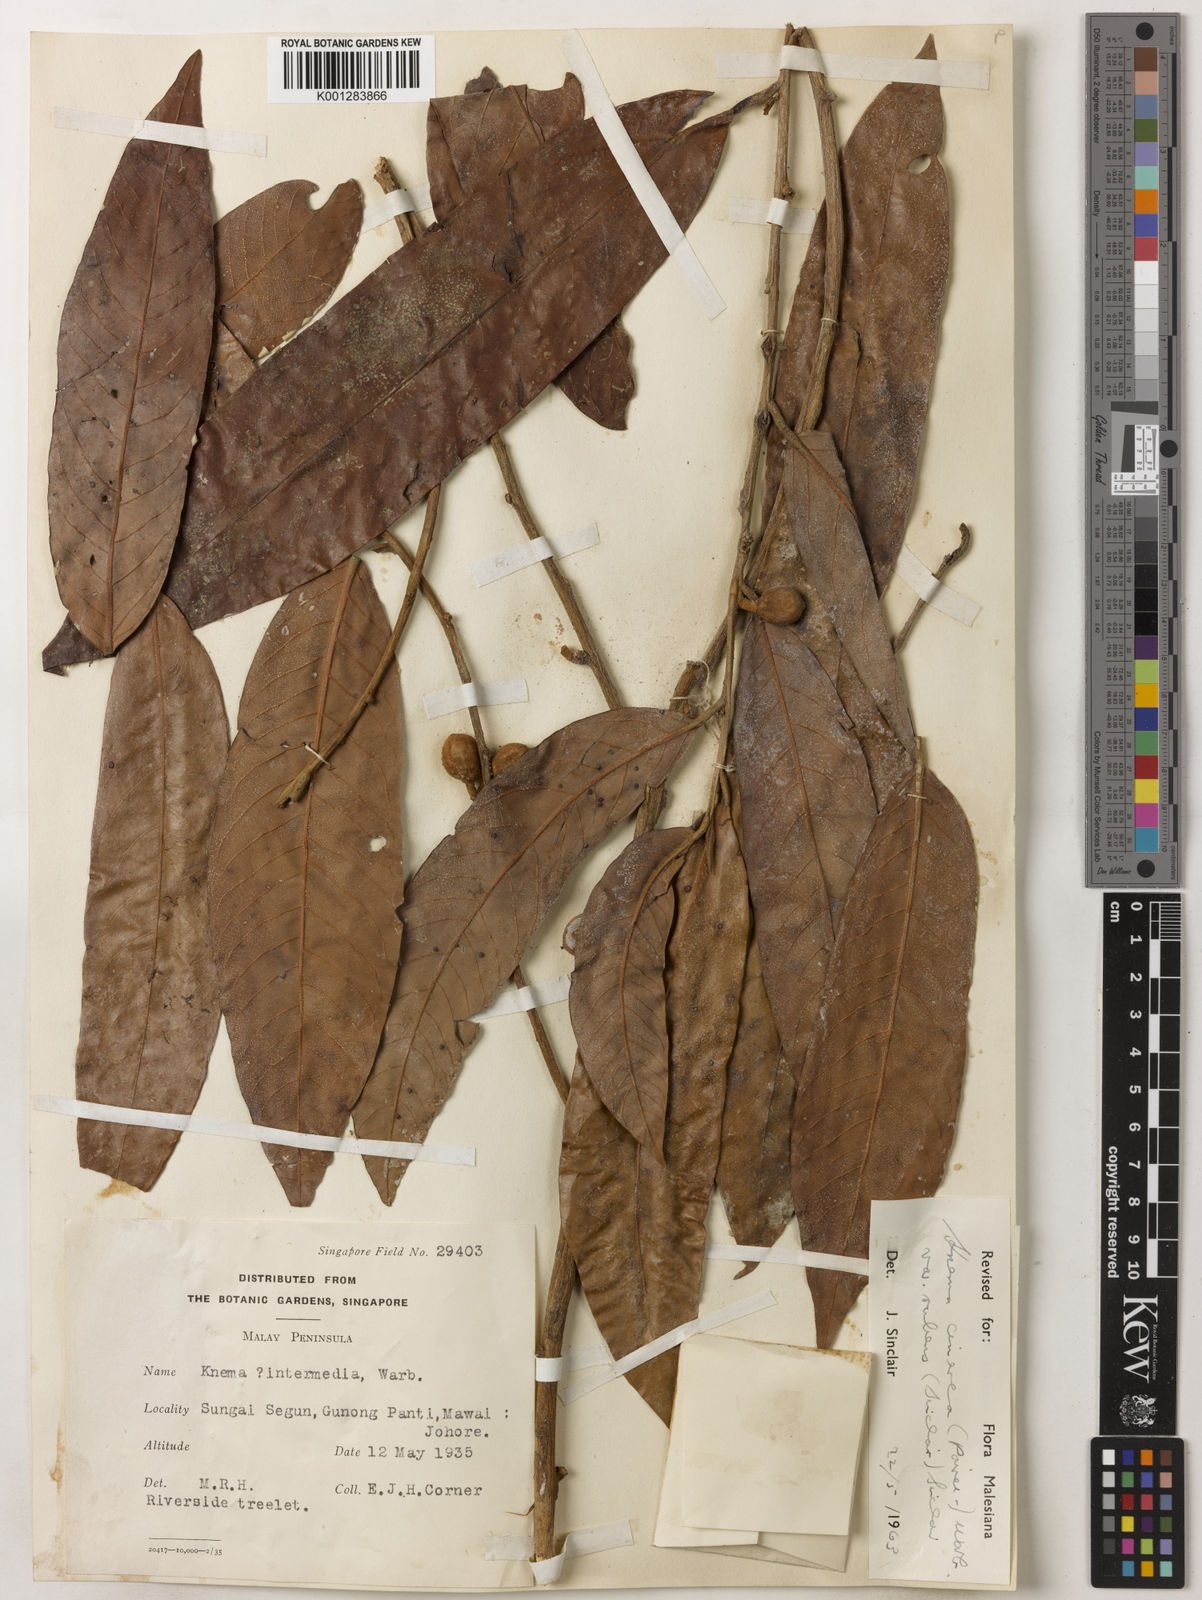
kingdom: Plantae
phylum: Tracheophyta
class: Magnoliopsida
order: Magnoliales
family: Myristicaceae
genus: Knema
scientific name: Knema
